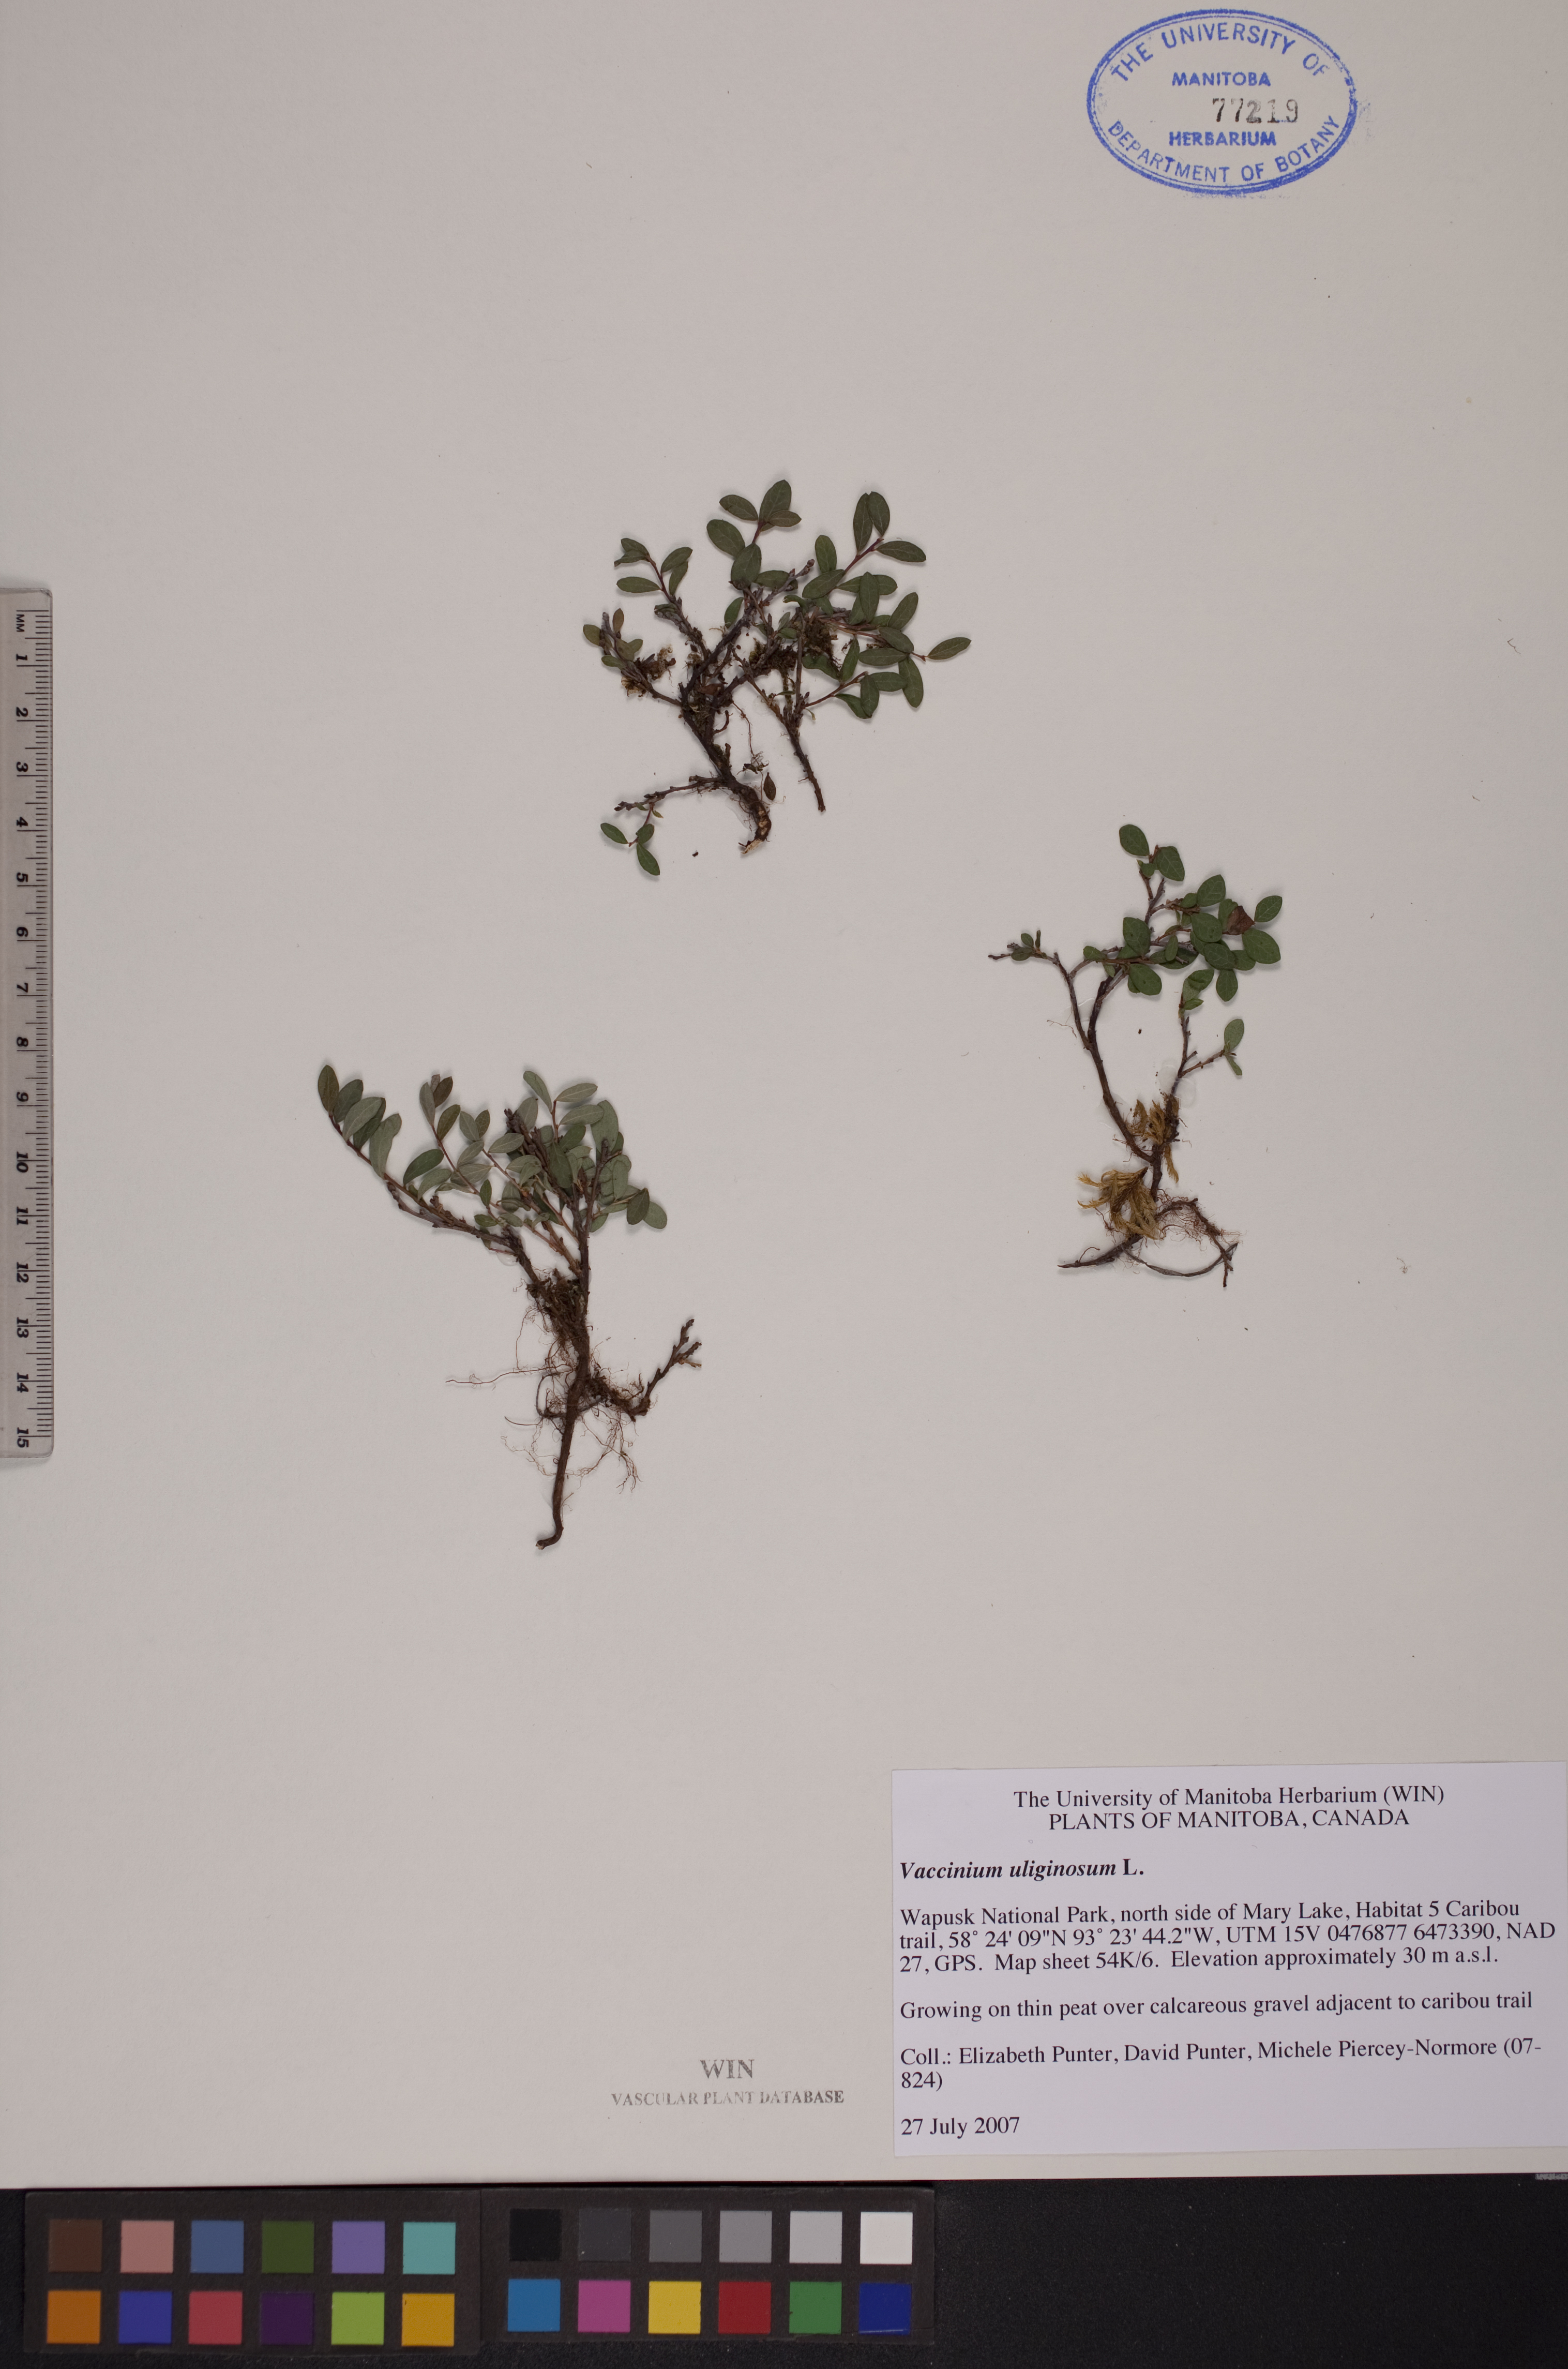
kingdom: Plantae
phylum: Tracheophyta
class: Liliopsida
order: Poales
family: Poaceae
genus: Poa
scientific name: Poa glauca
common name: Glaucous bluegrass
